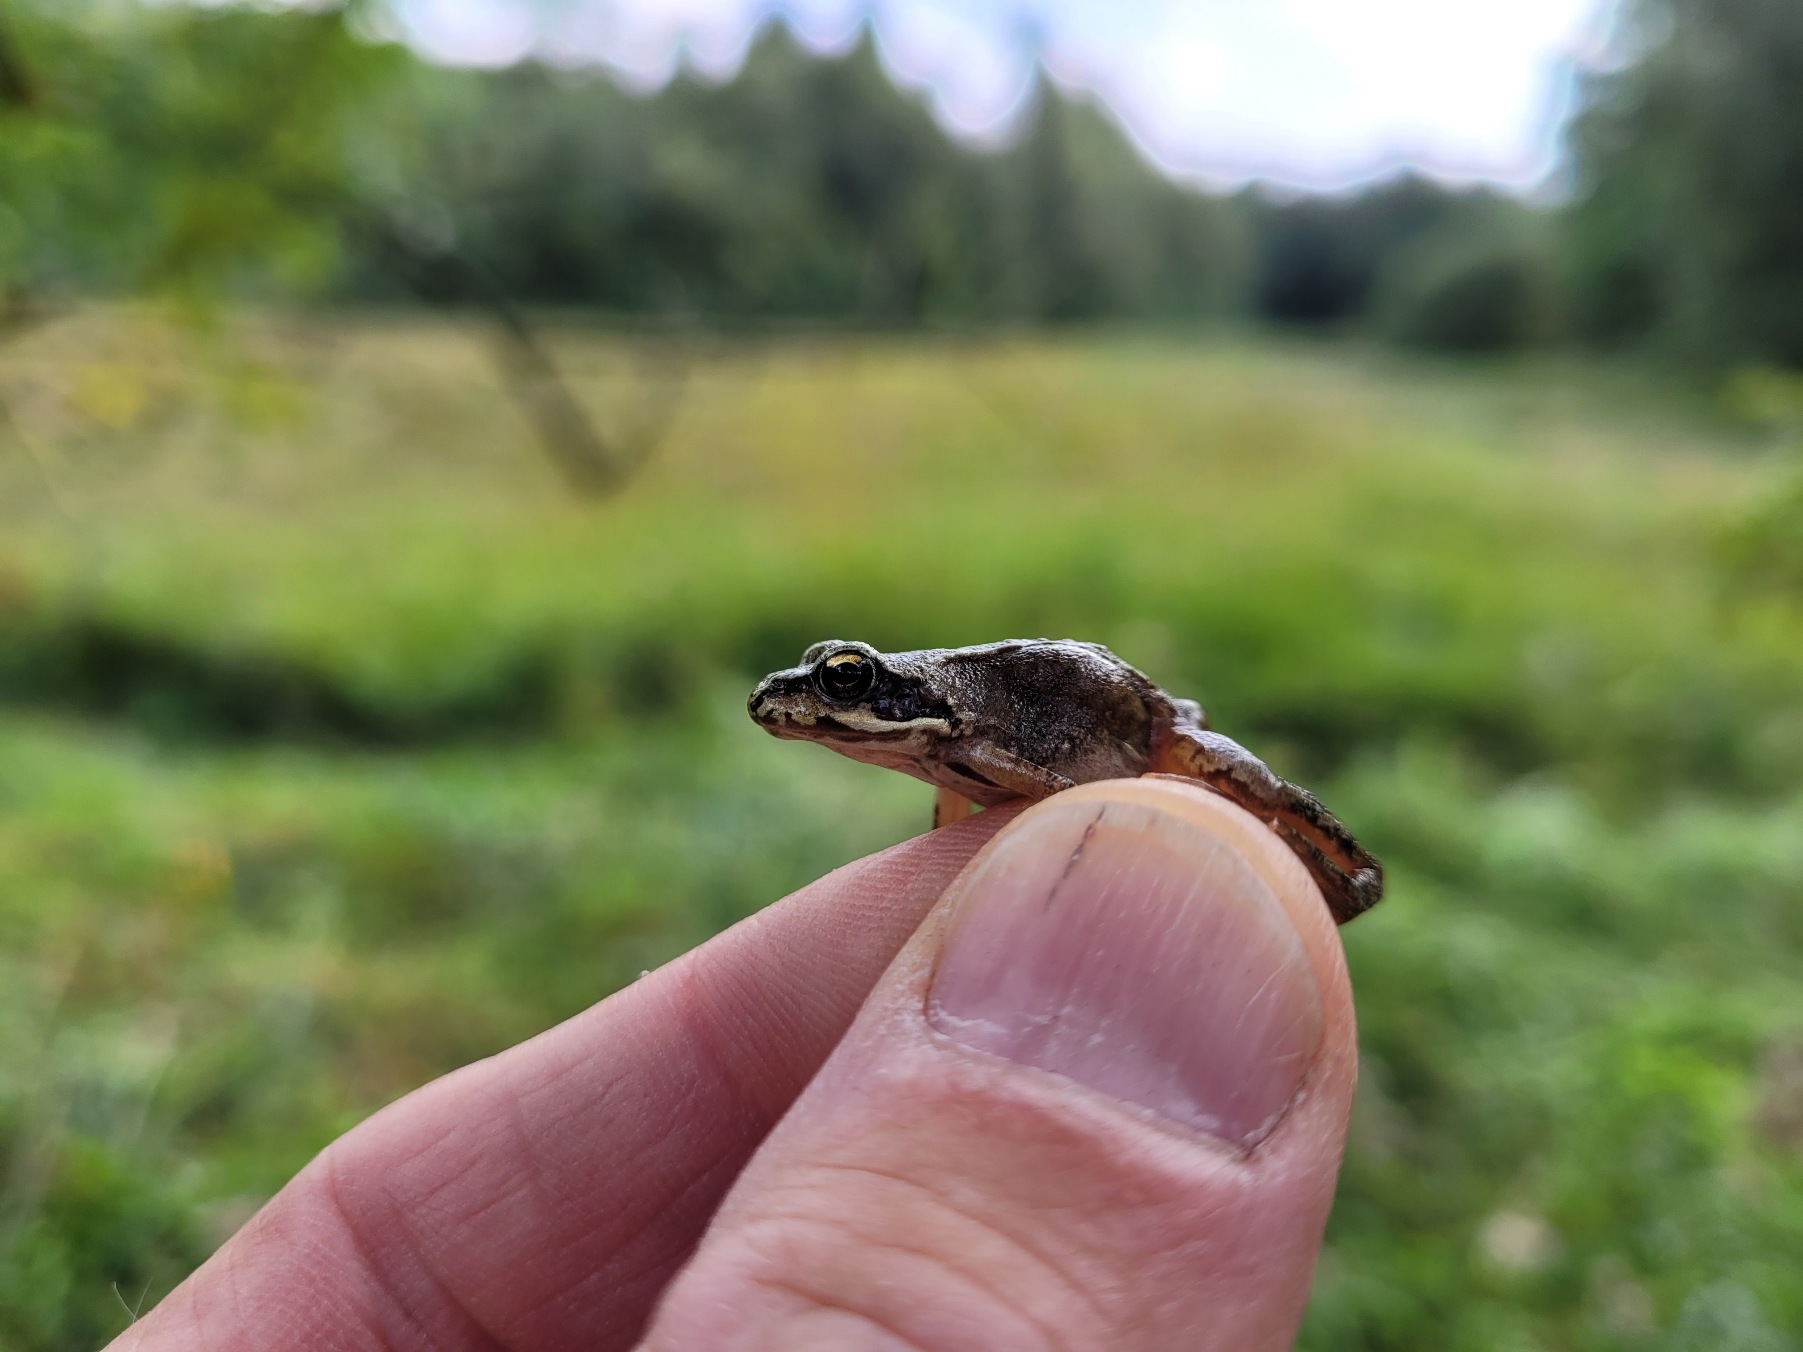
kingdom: Animalia
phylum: Chordata
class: Amphibia
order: Anura
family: Ranidae
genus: Rana
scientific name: Rana temporaria
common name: Butsnudet frø
